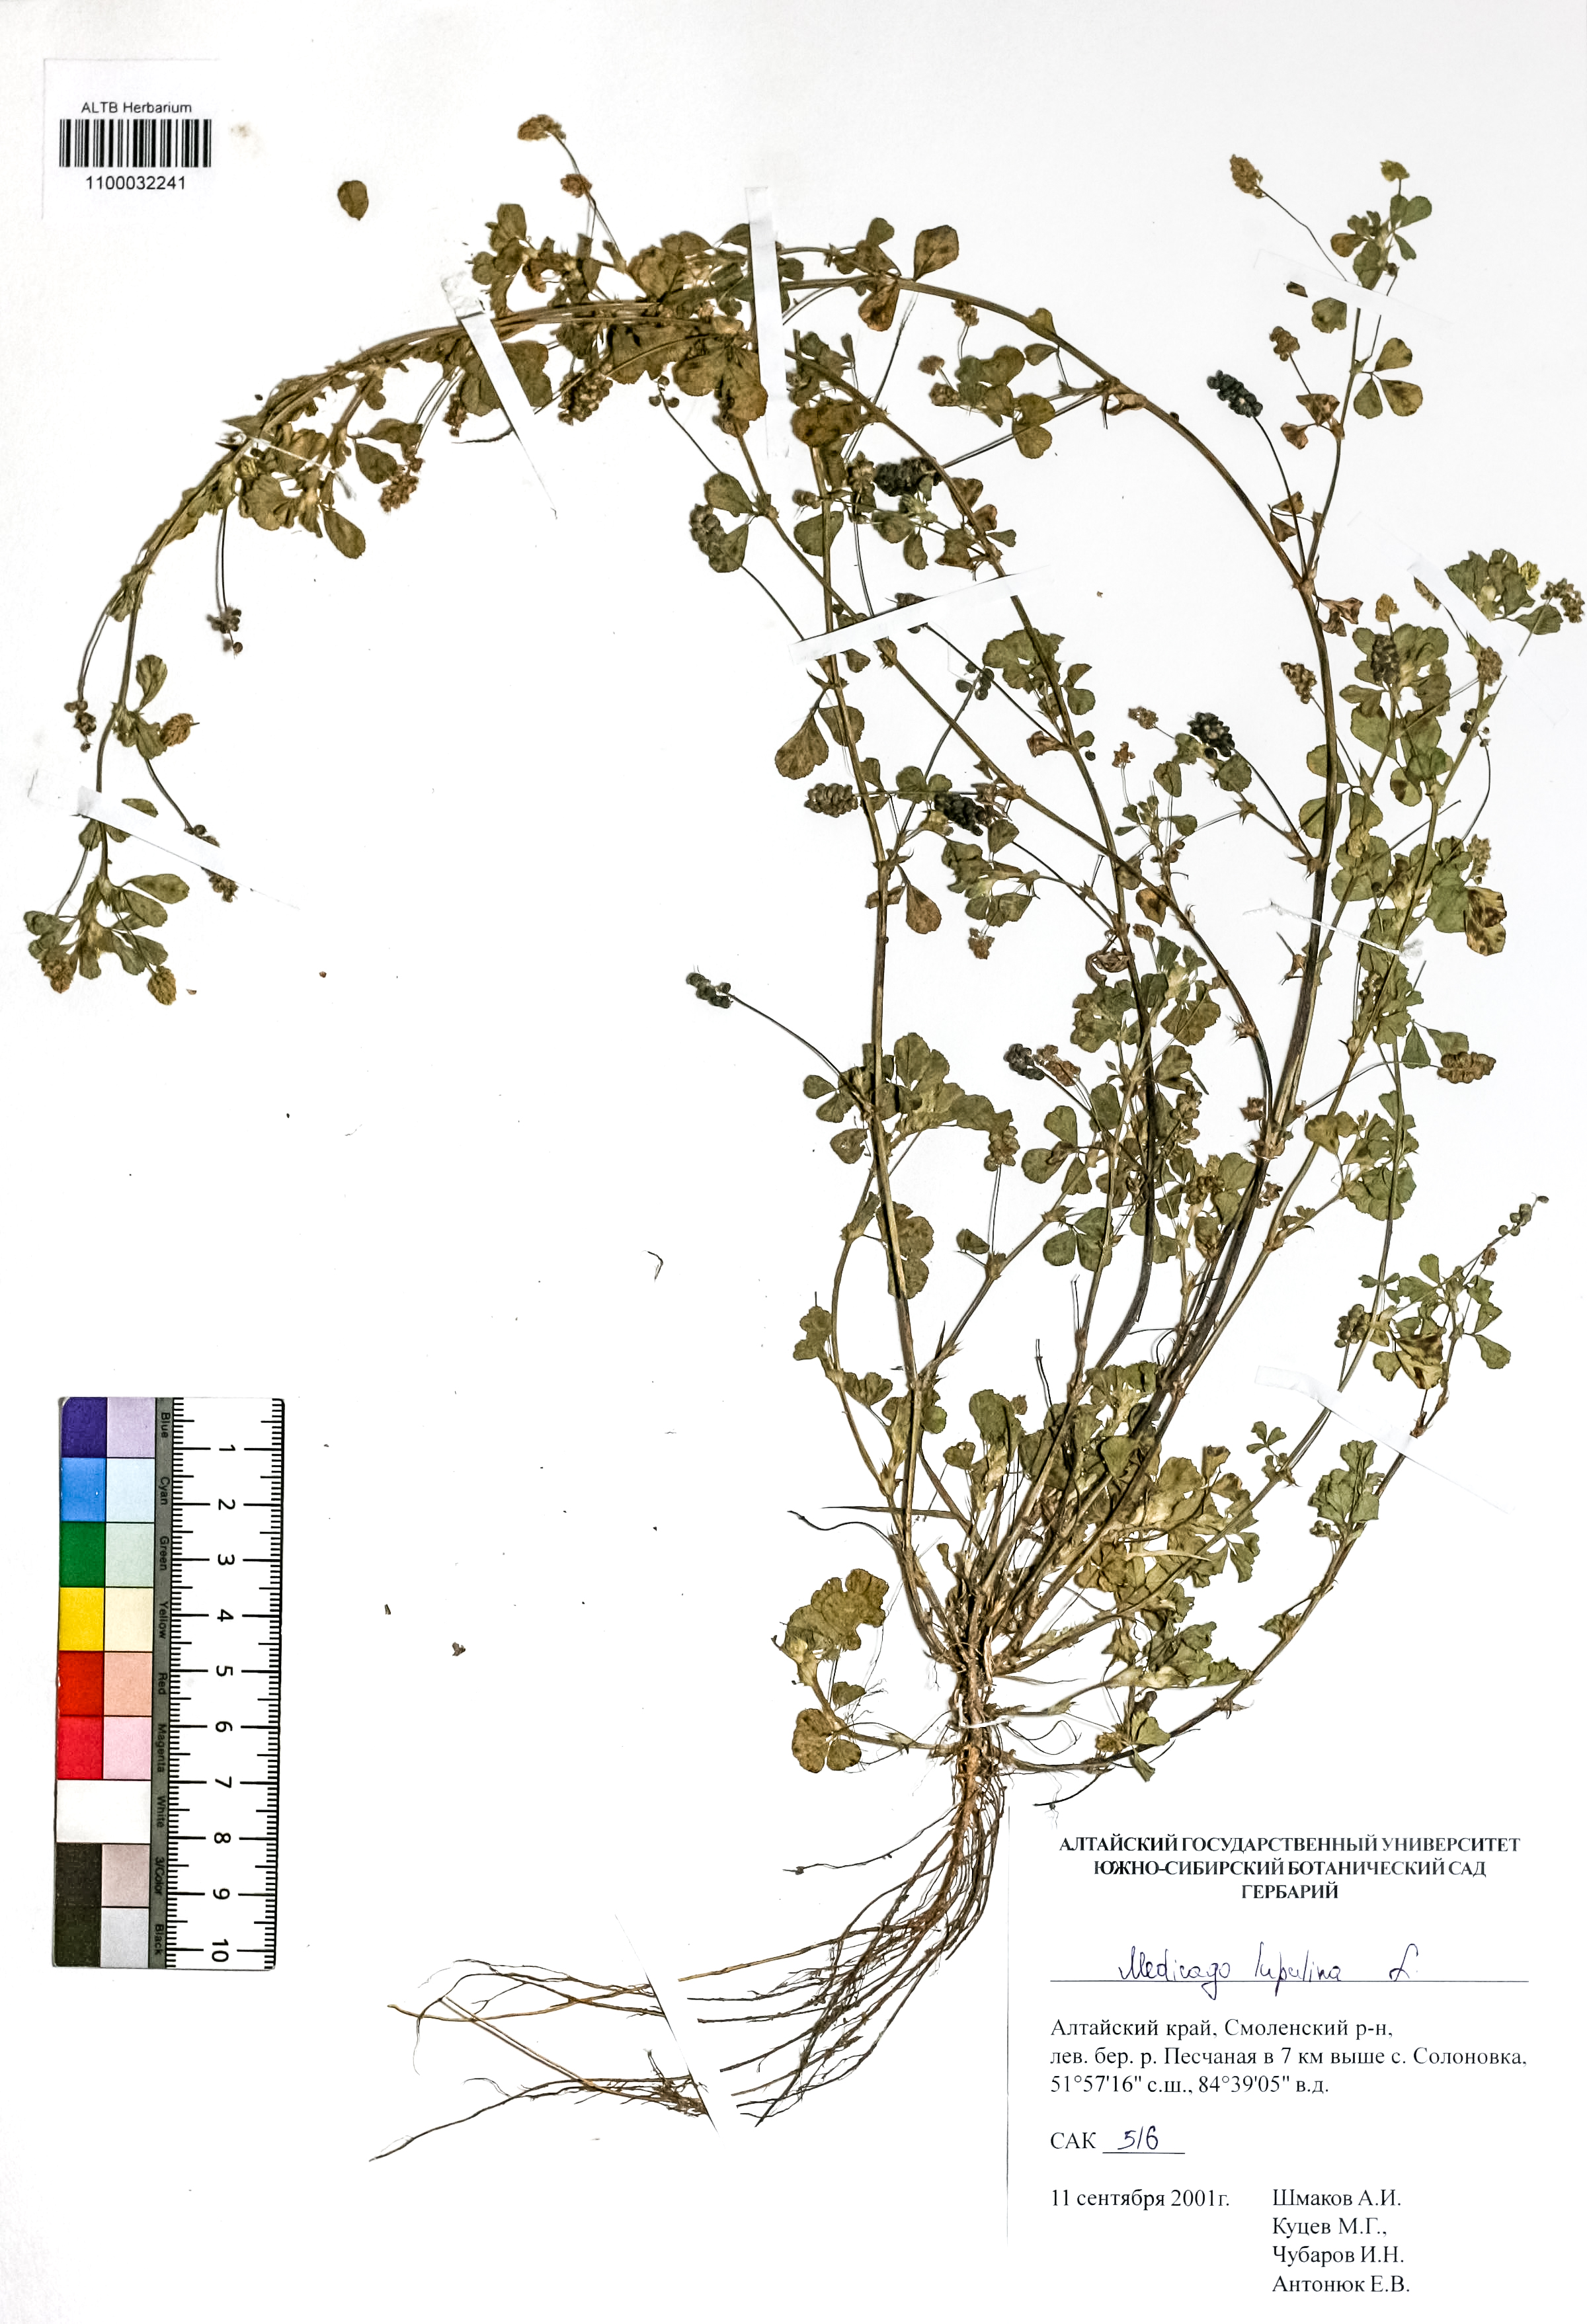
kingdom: Plantae
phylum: Tracheophyta
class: Magnoliopsida
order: Fabales
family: Fabaceae
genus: Medicago
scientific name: Medicago lupulina
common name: Black medick
